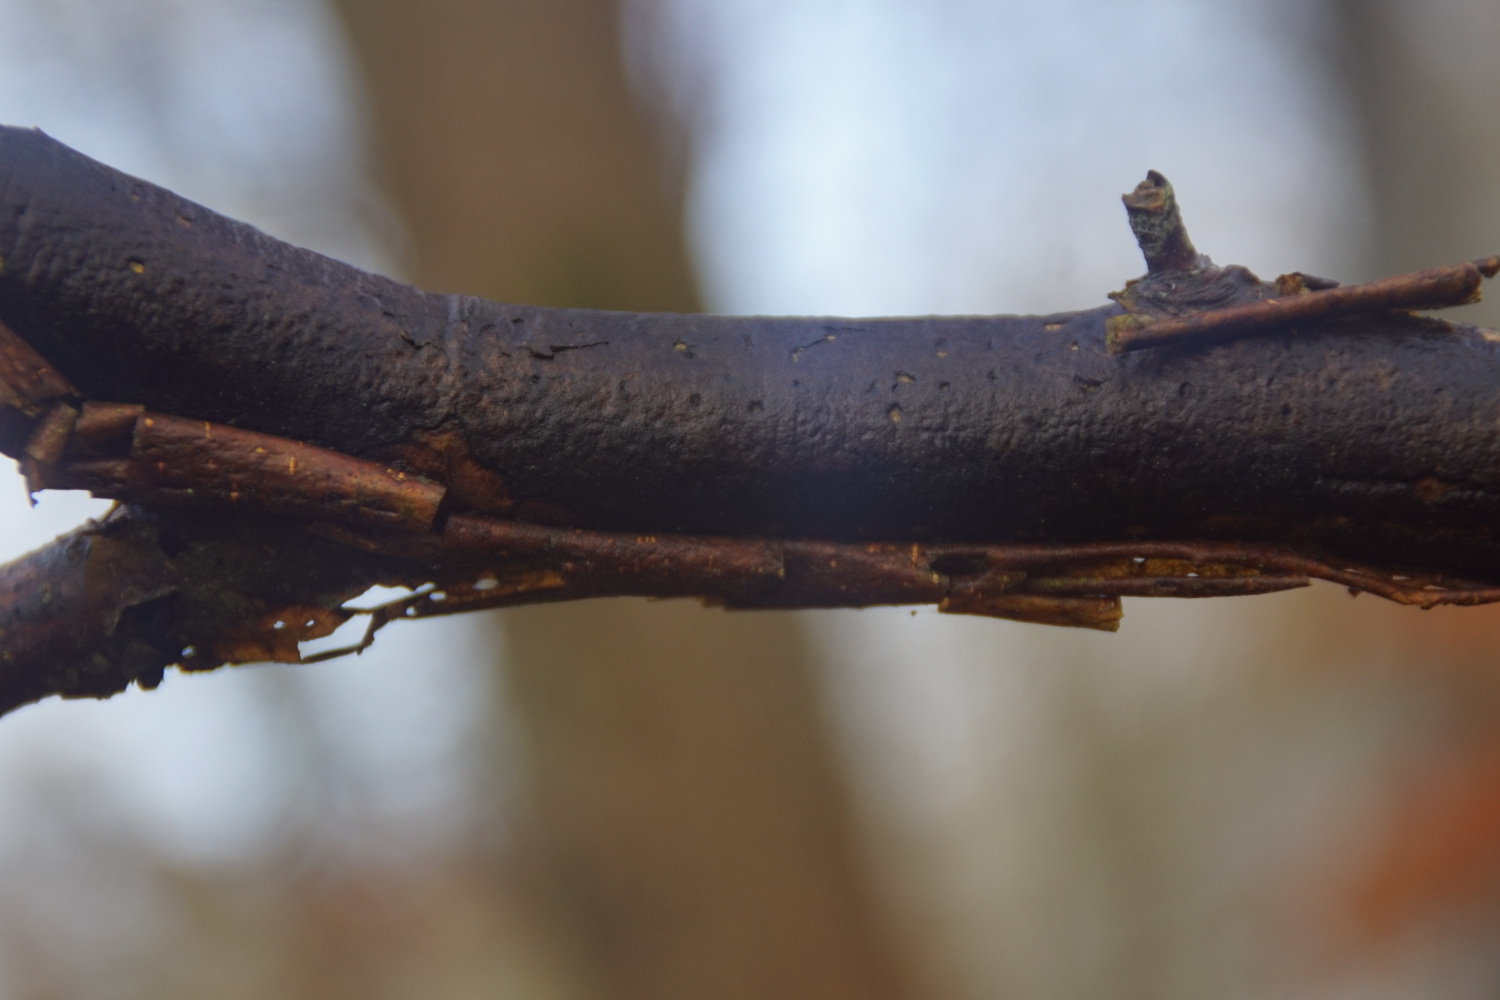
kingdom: Fungi
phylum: Ascomycota
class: Sordariomycetes
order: Xylariales
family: Diatrypaceae
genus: Diatrype
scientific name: Diatrype decorticata
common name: barksprænger-kulskorpe
